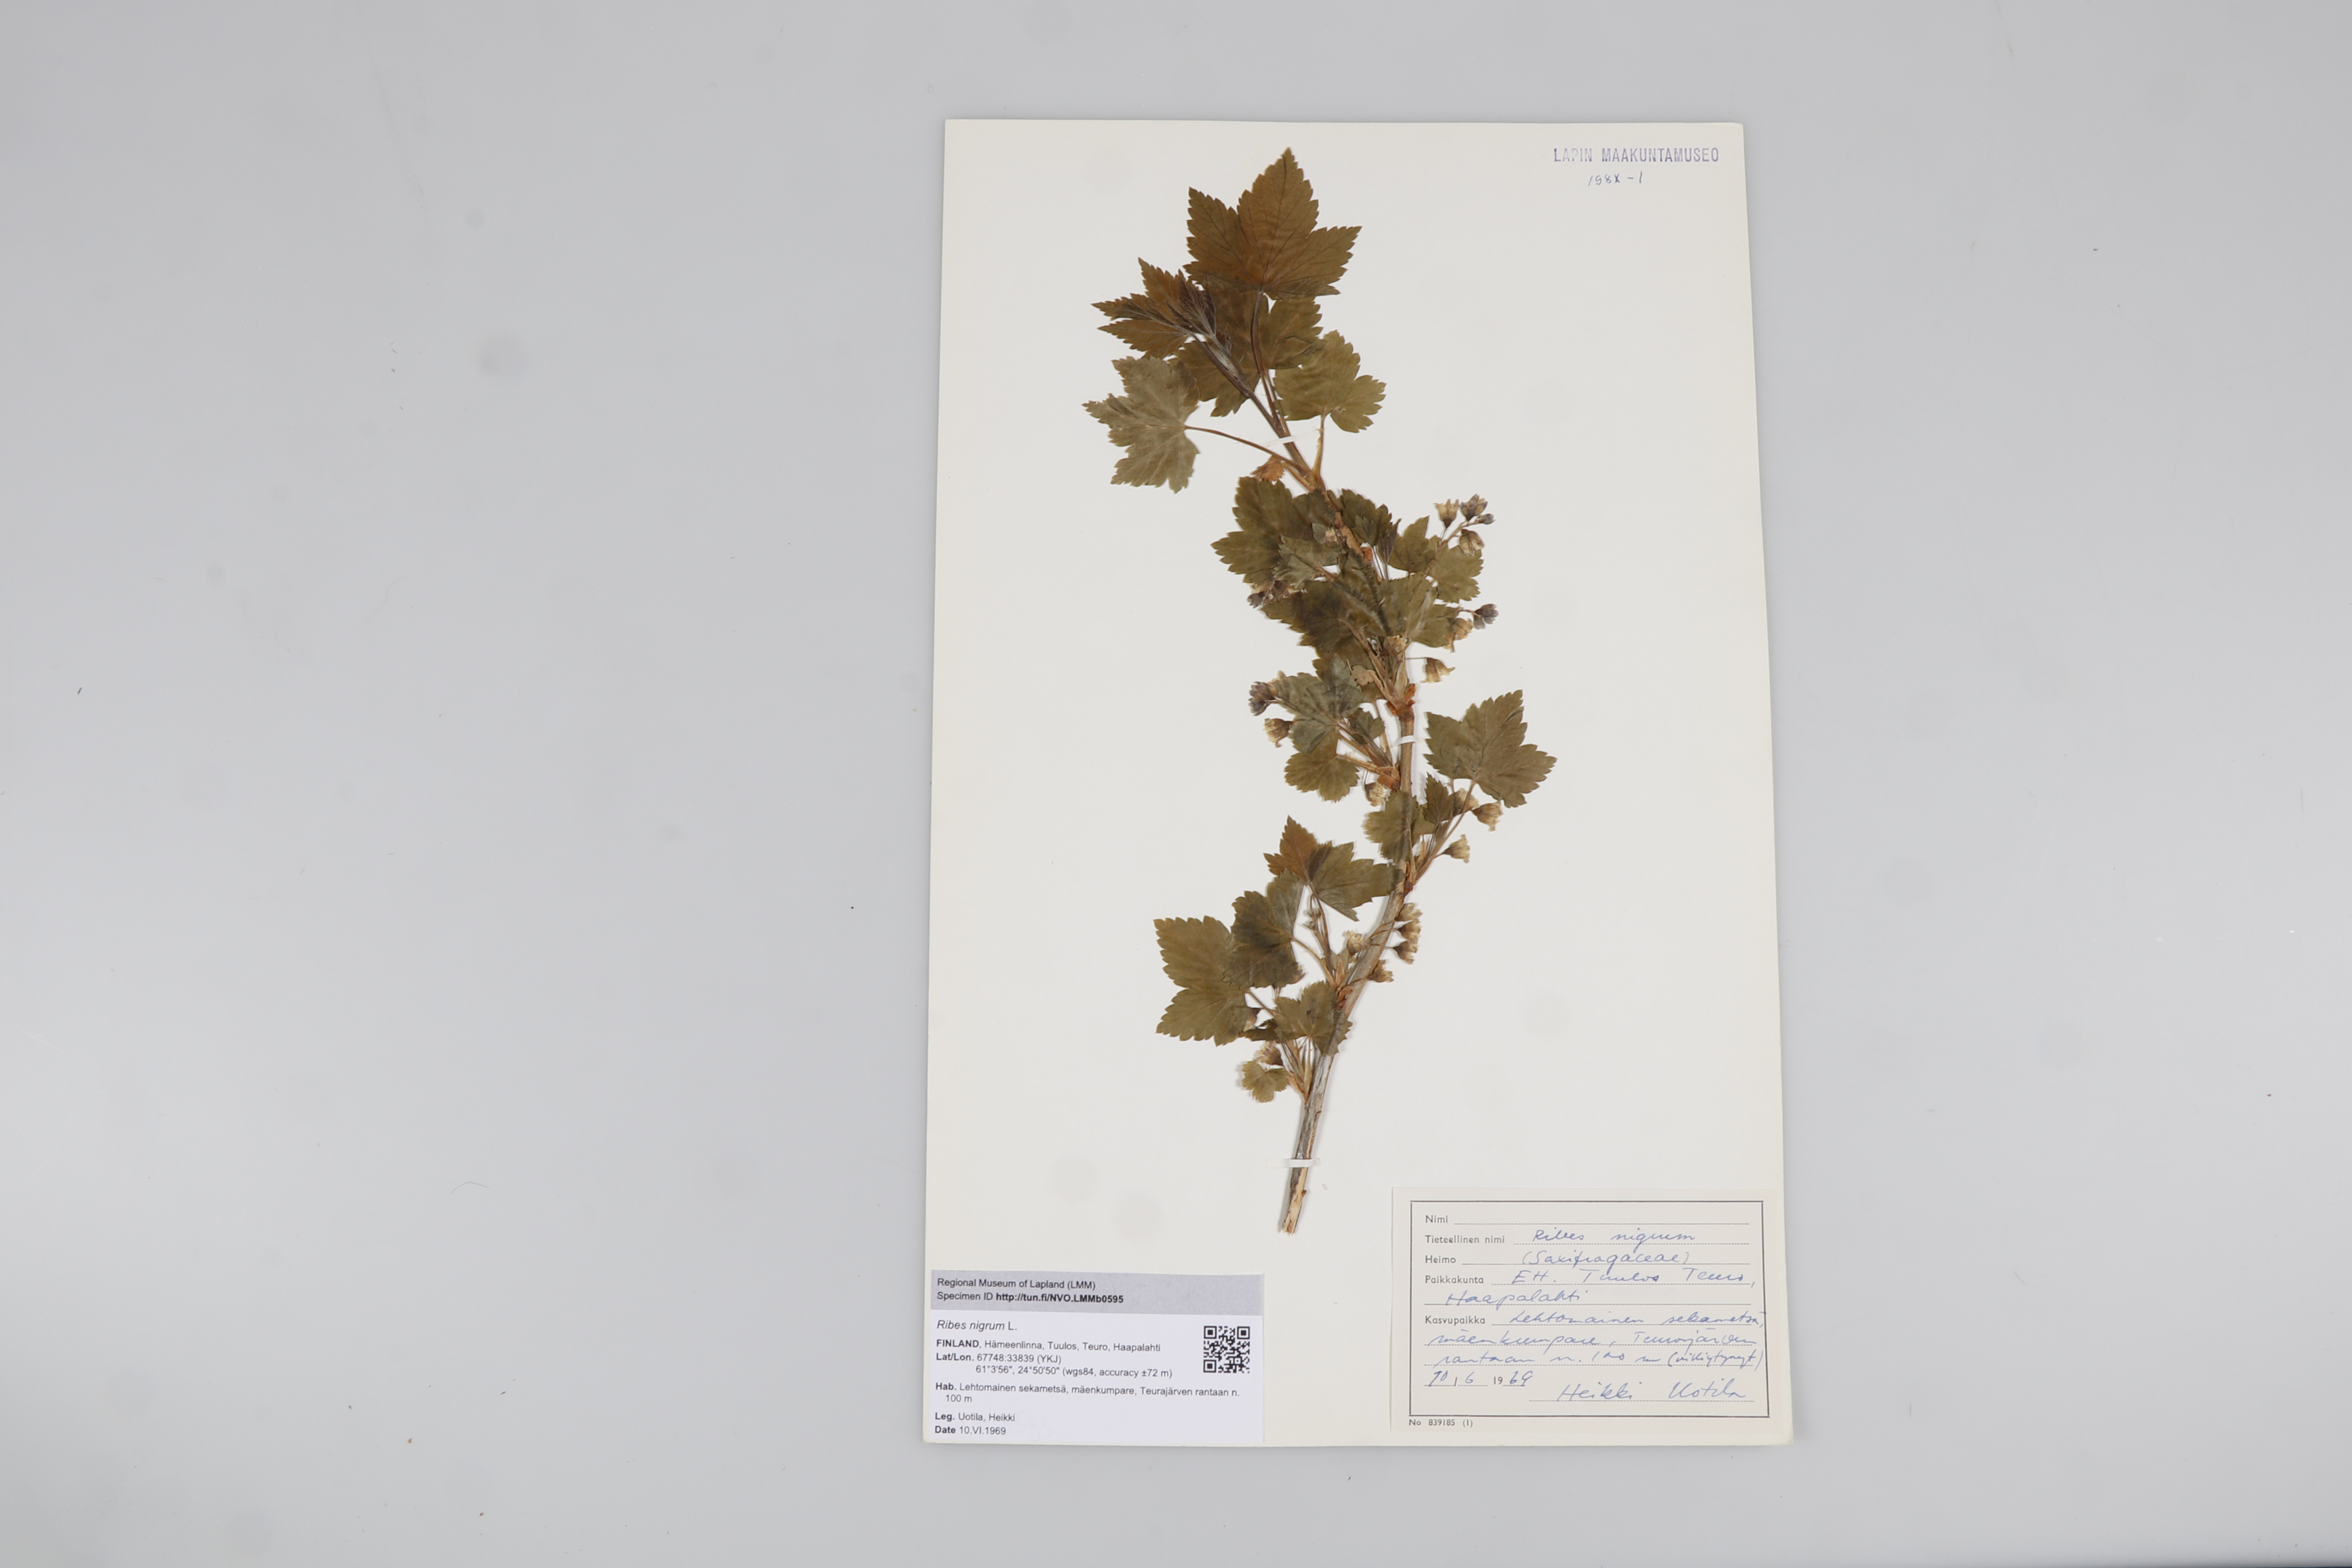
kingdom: Plantae
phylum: Tracheophyta
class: Magnoliopsida
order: Saxifragales
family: Grossulariaceae
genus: Ribes
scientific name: Ribes nigrum
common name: Black currant
